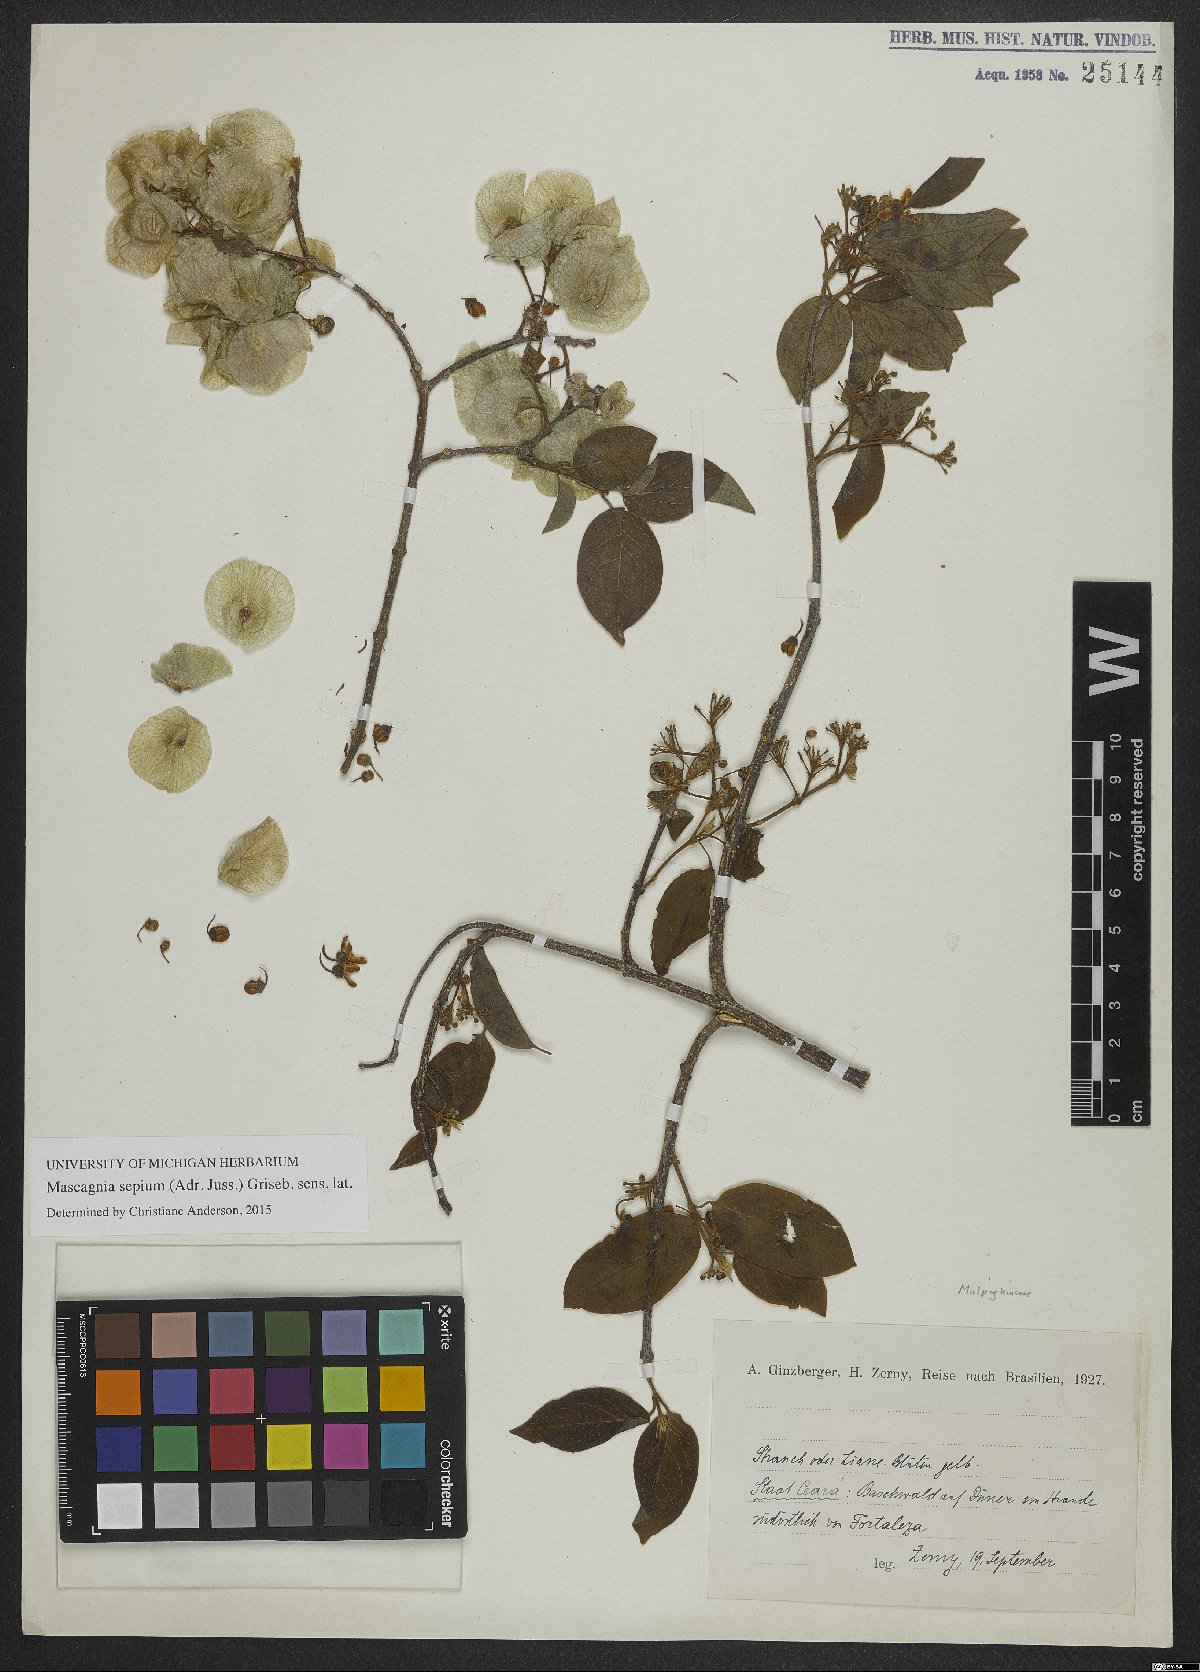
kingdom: Plantae
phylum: Tracheophyta
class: Magnoliopsida
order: Malpighiales
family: Malpighiaceae
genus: Mascagnia
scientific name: Mascagnia sepium
